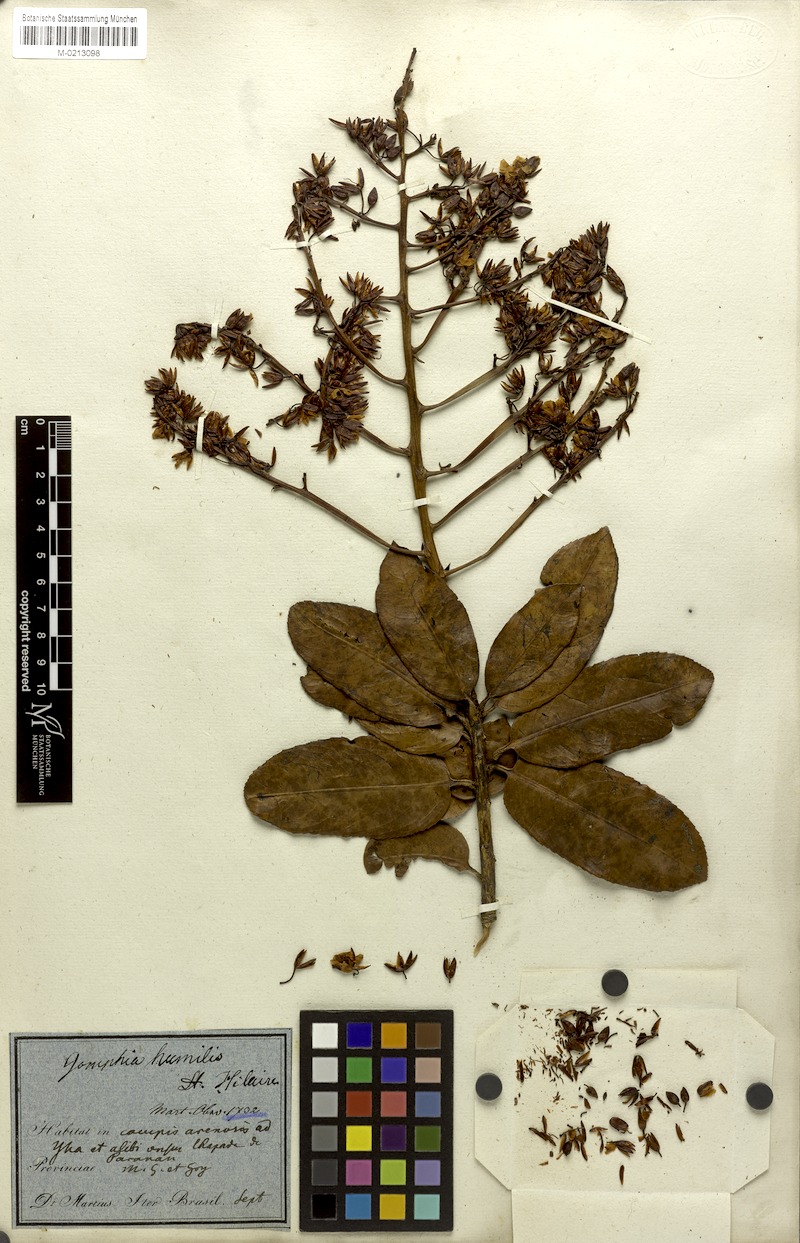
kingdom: Plantae
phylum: Tracheophyta
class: Magnoliopsida
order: Malpighiales
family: Ochnaceae
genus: Ouratea
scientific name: Ouratea castaneifolia
